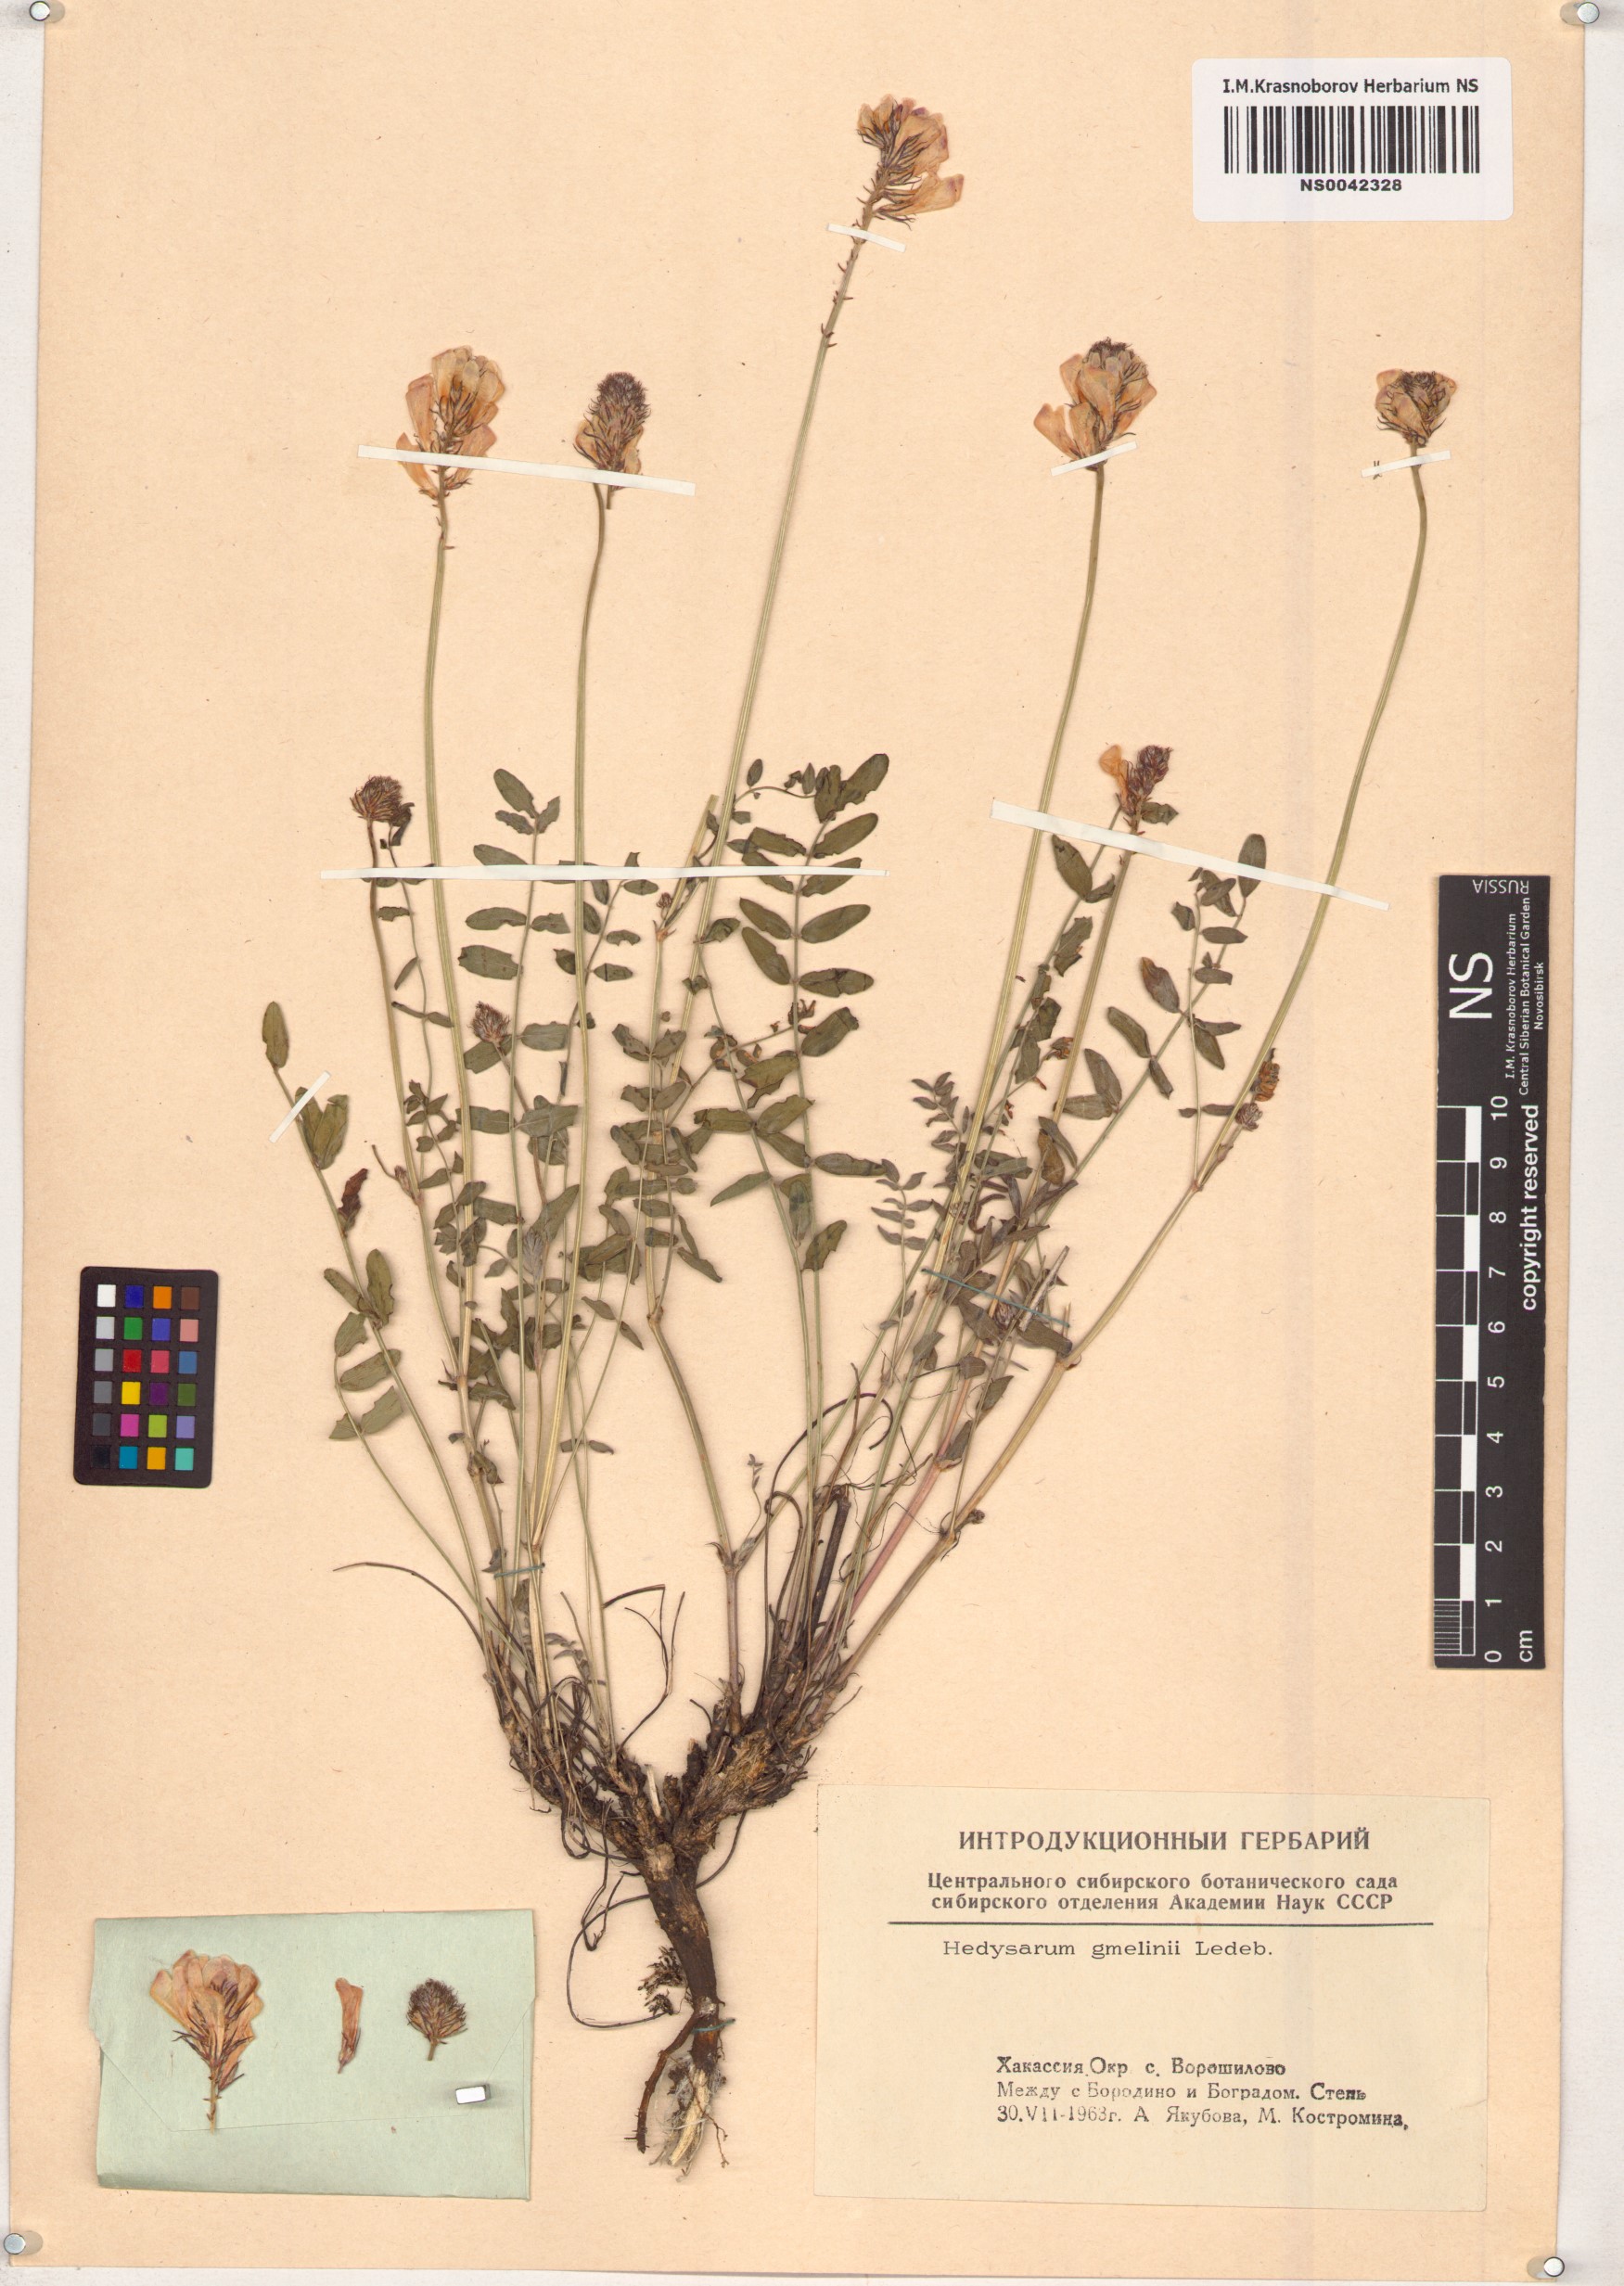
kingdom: Plantae
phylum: Tracheophyta
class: Magnoliopsida
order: Fabales
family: Fabaceae
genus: Hedysarum
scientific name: Hedysarum gmelinii
